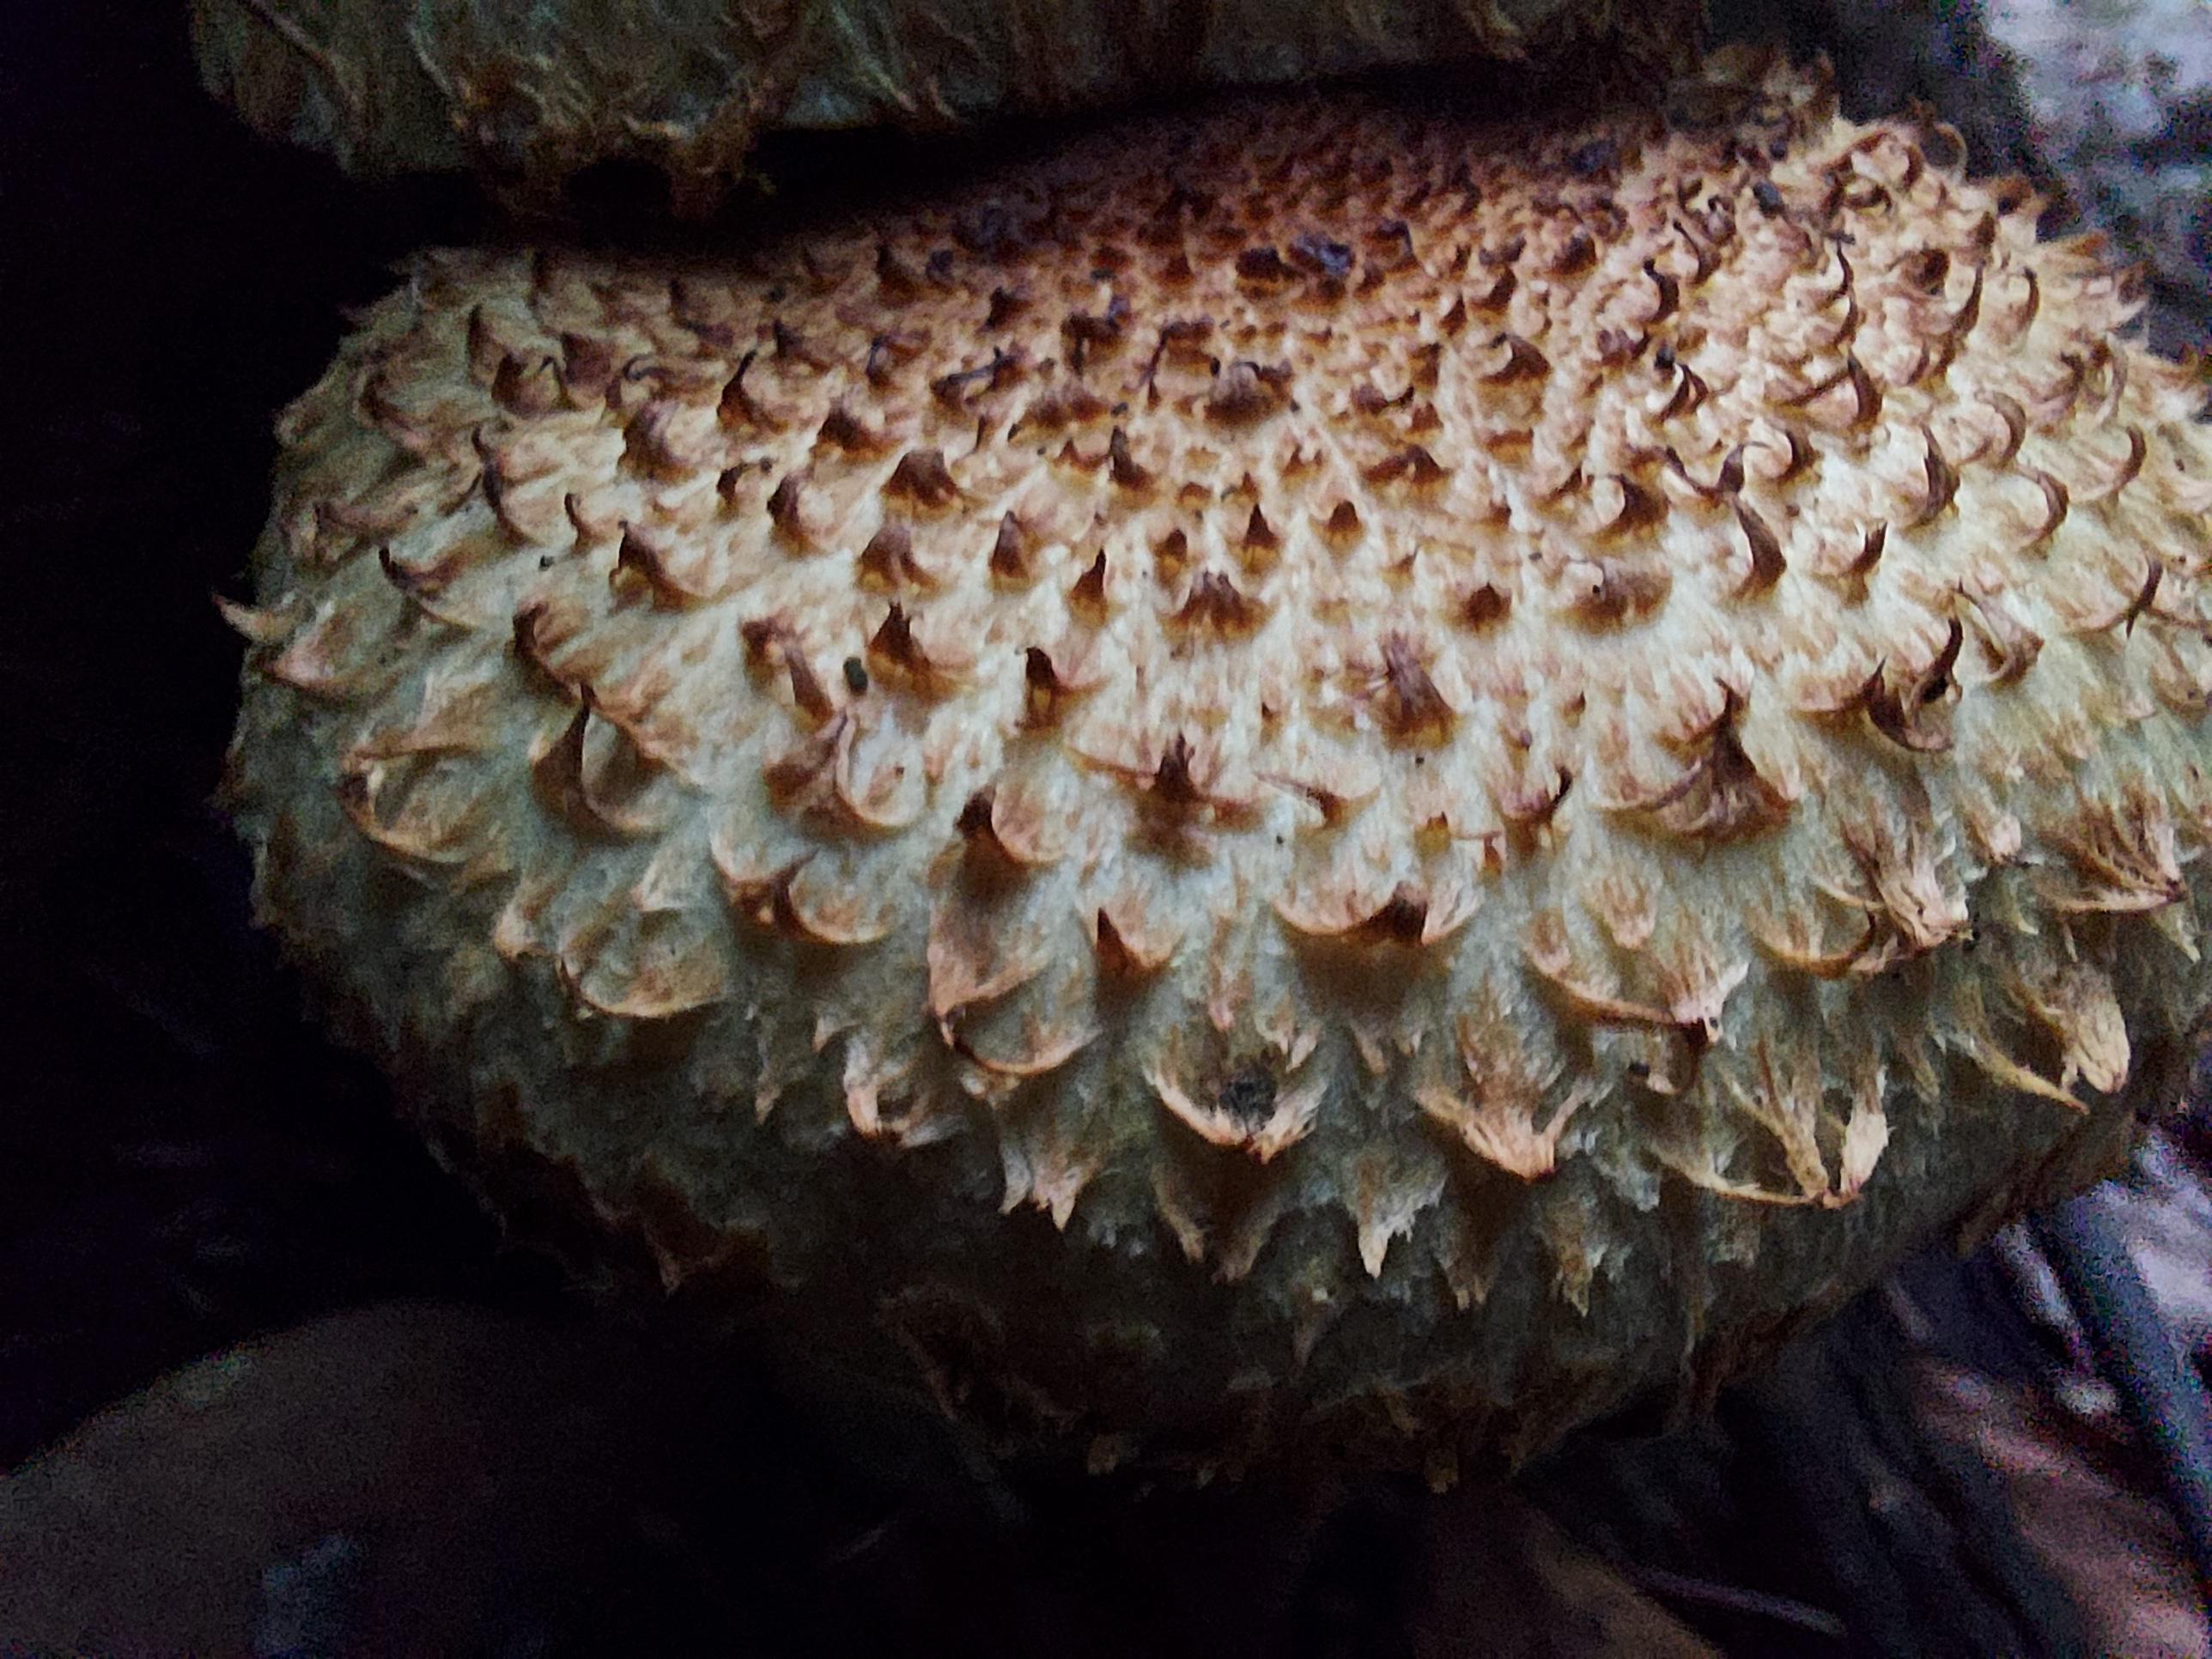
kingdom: Fungi
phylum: Basidiomycota
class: Agaricomycetes
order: Agaricales
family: Strophariaceae
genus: Pholiota
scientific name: Pholiota squarrosa
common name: krumskællet skælhat
